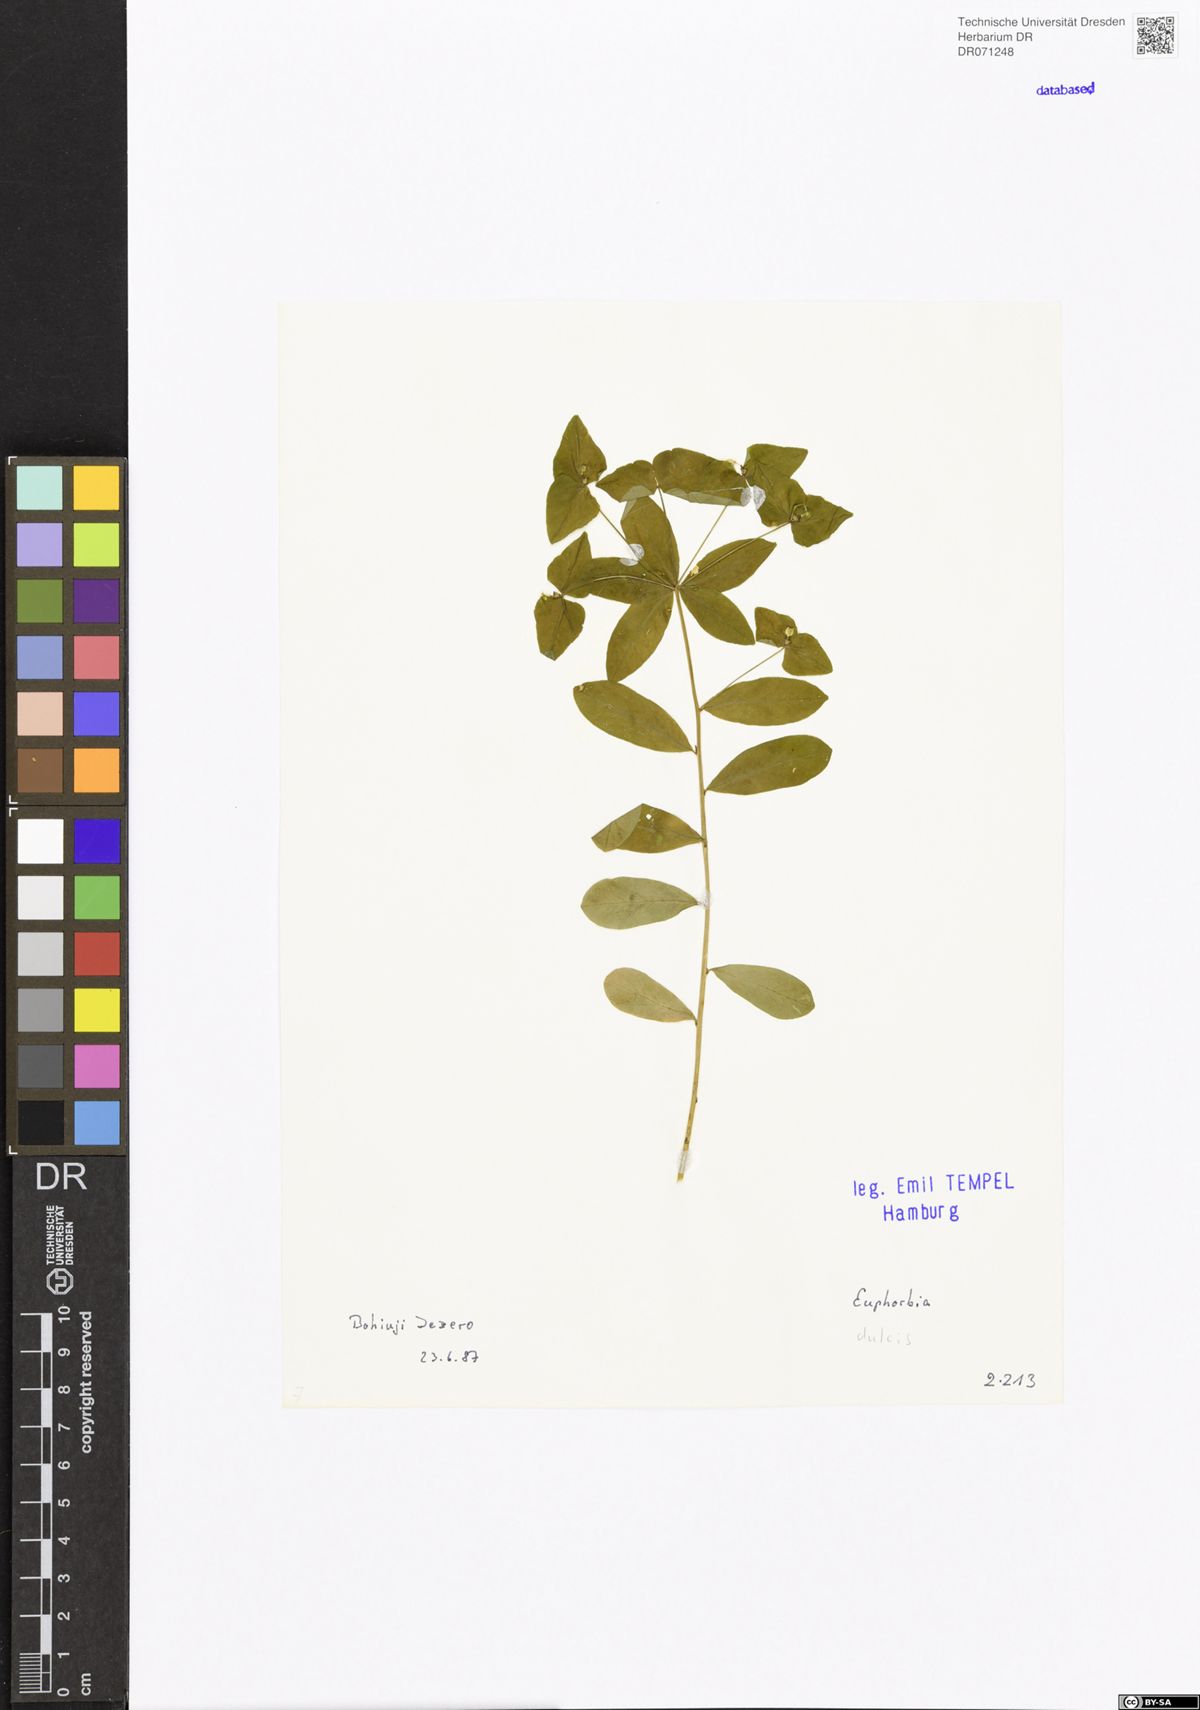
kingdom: Plantae
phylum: Tracheophyta
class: Magnoliopsida
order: Malpighiales
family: Euphorbiaceae
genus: Euphorbia
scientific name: Euphorbia dulcis
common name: Sweet spurge
